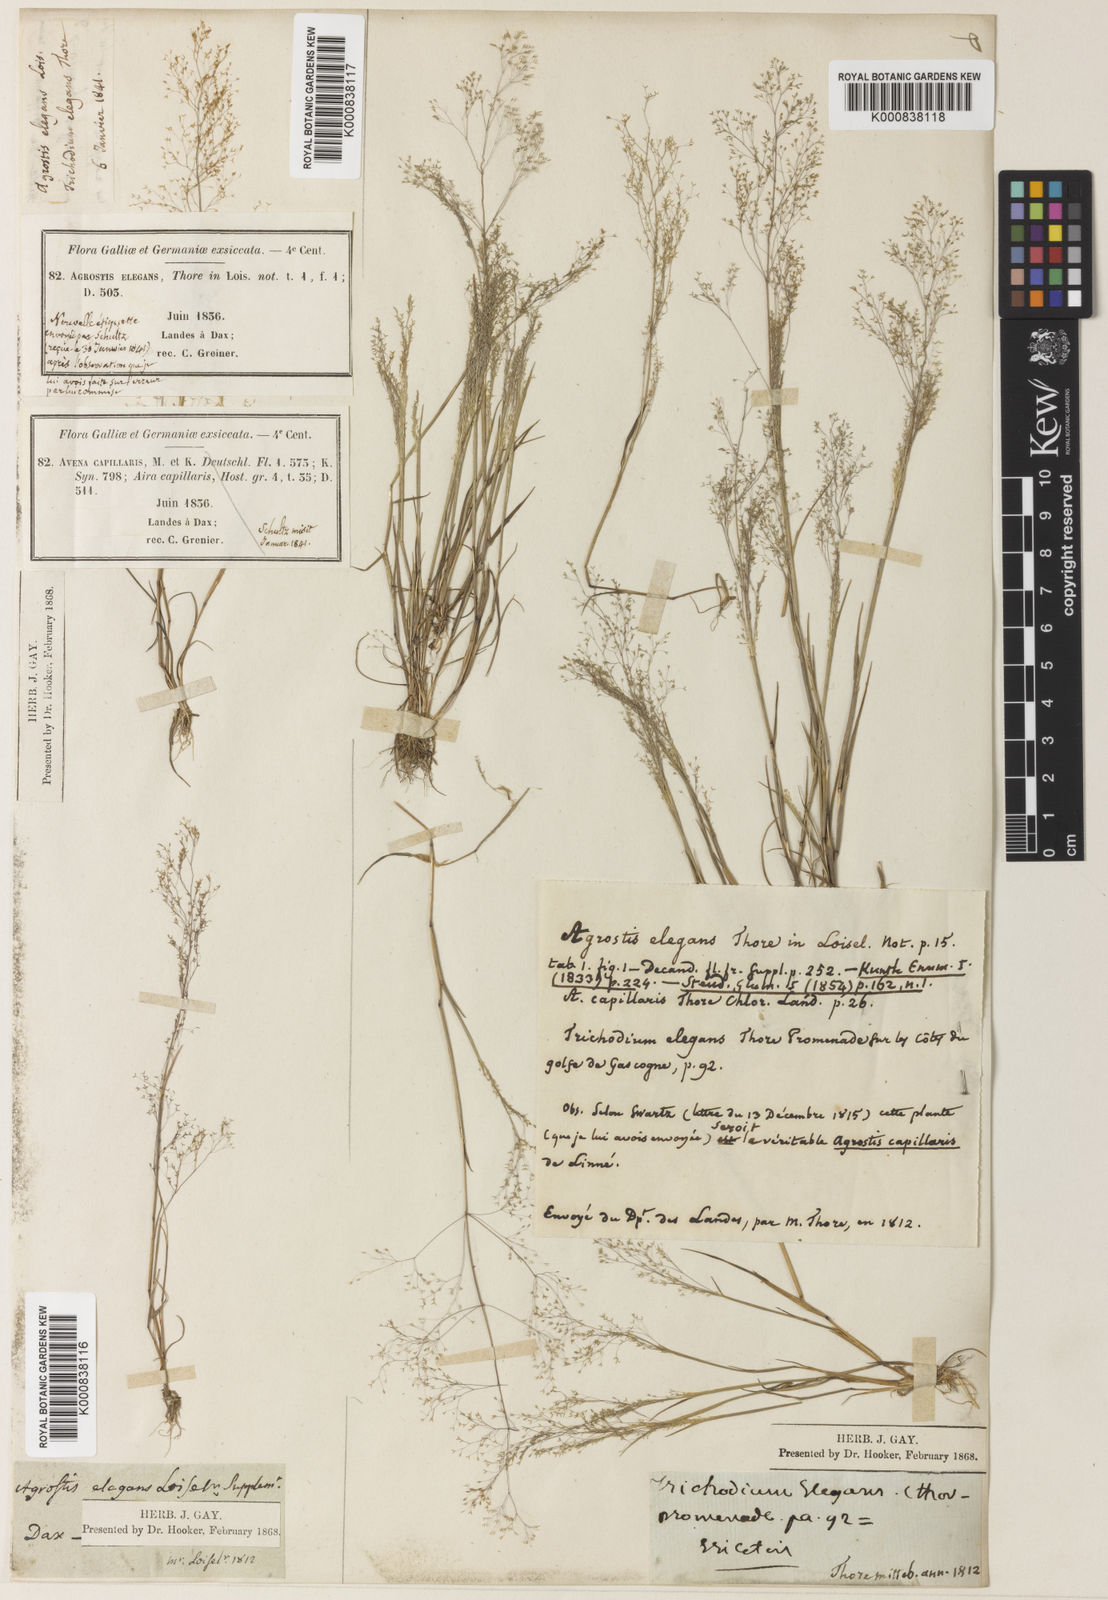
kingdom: Plantae
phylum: Tracheophyta
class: Liliopsida
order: Poales
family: Poaceae
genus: Agrostis
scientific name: Agrostis tenerrima
